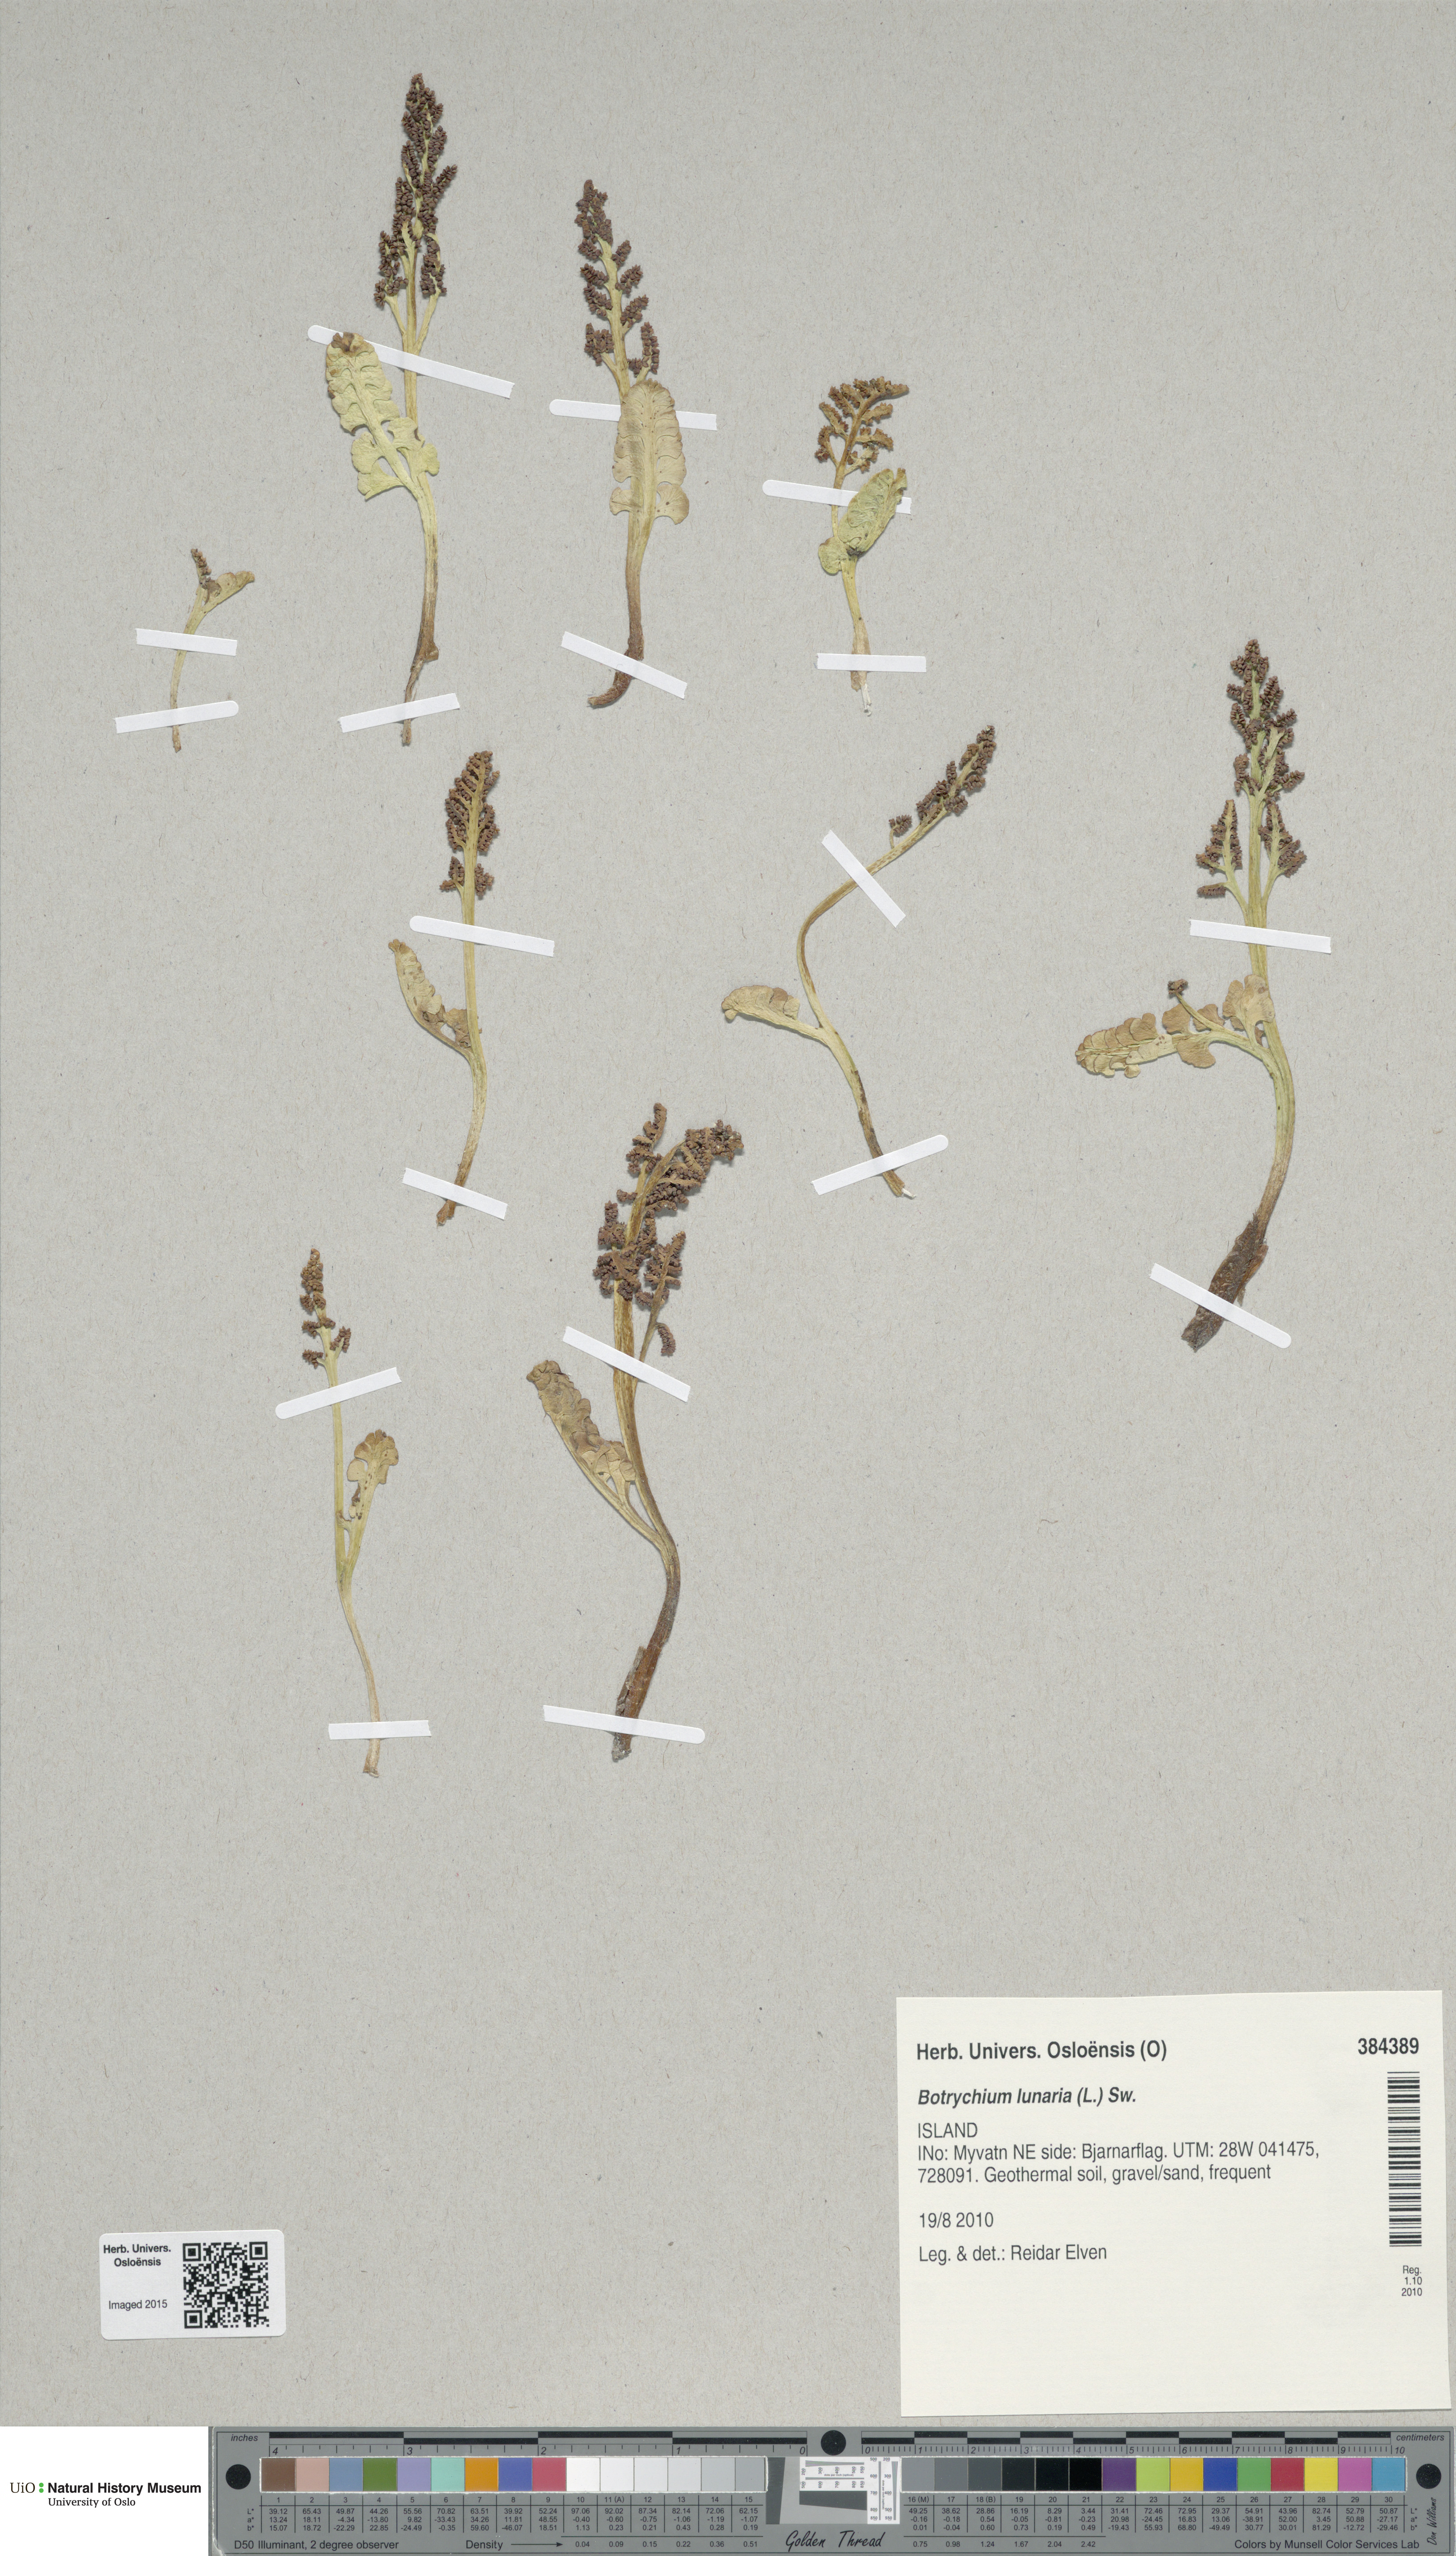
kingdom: Plantae
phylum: Tracheophyta
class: Polypodiopsida
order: Ophioglossales
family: Ophioglossaceae
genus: Botrychium
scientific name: Botrychium lunaria
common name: Moonwort
